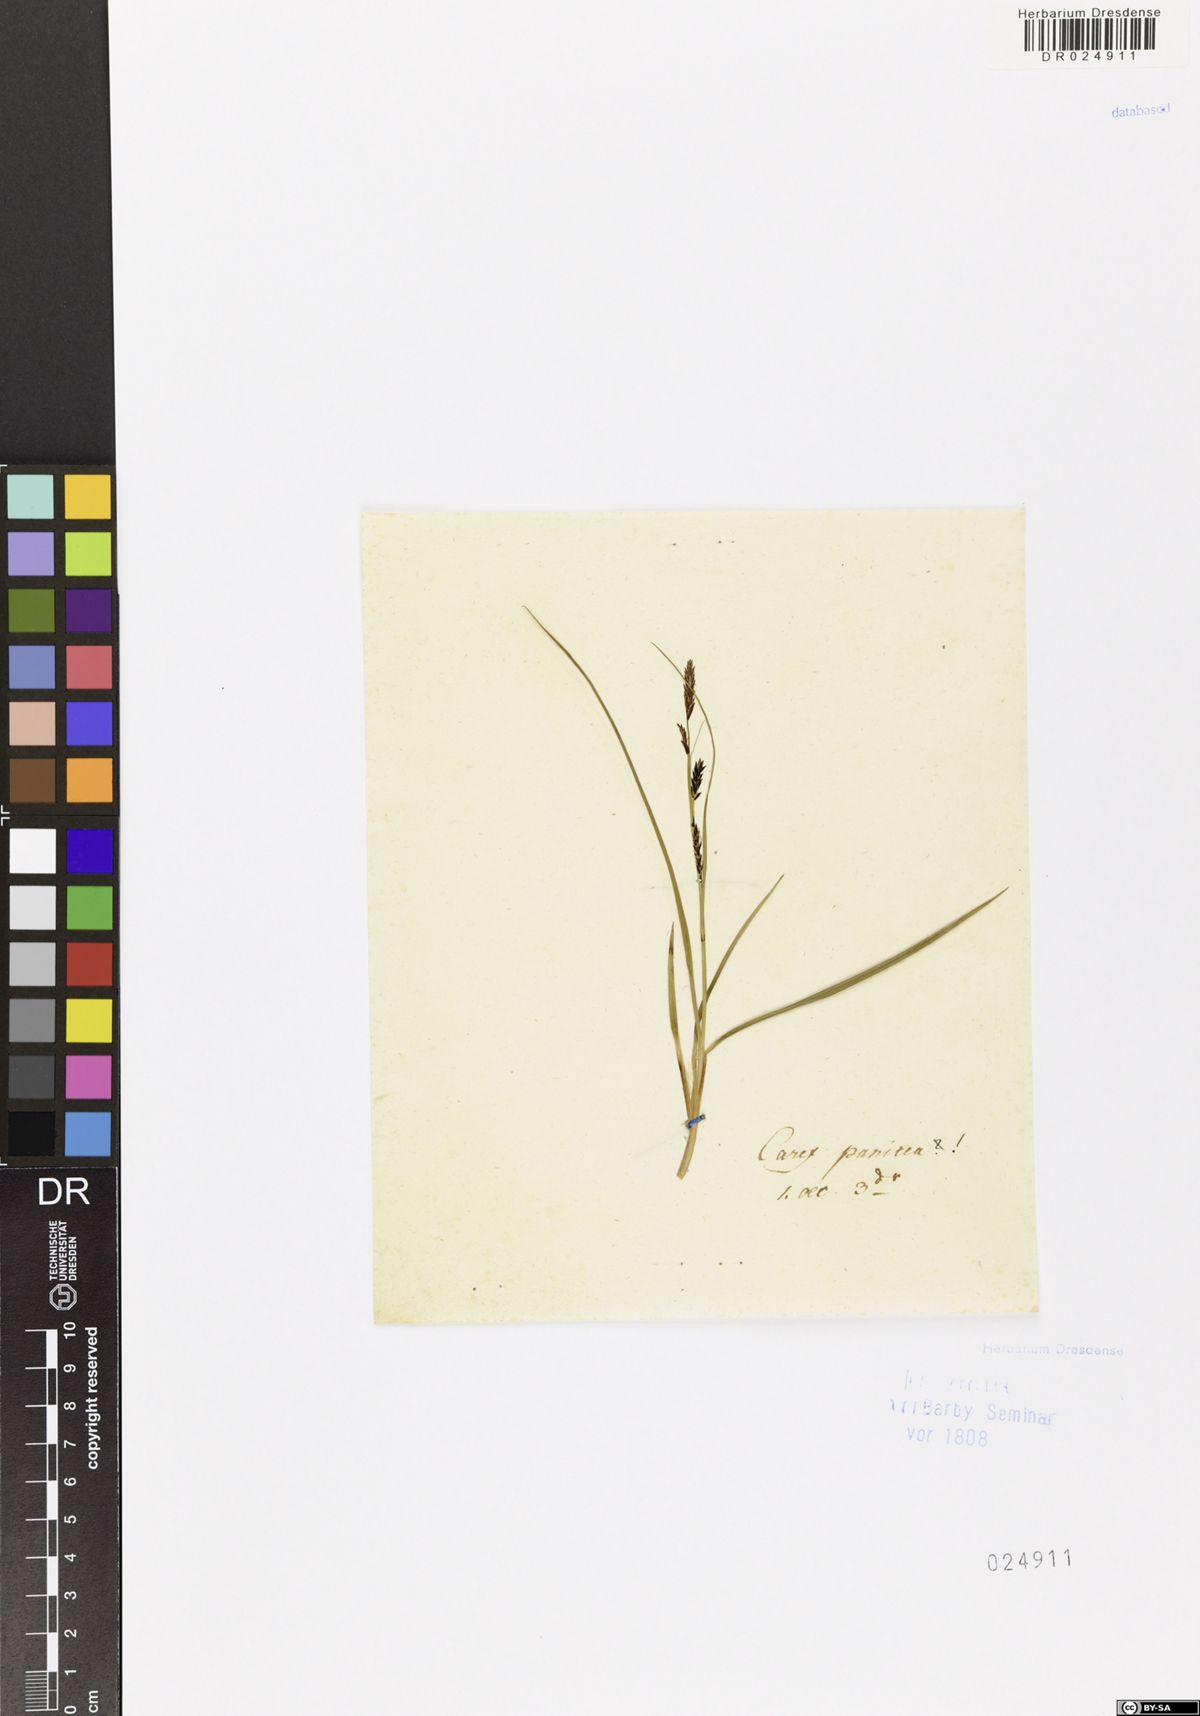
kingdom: Plantae
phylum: Tracheophyta
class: Liliopsida
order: Poales
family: Cyperaceae
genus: Carex
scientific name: Carex panicea
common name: Carnation sedge
